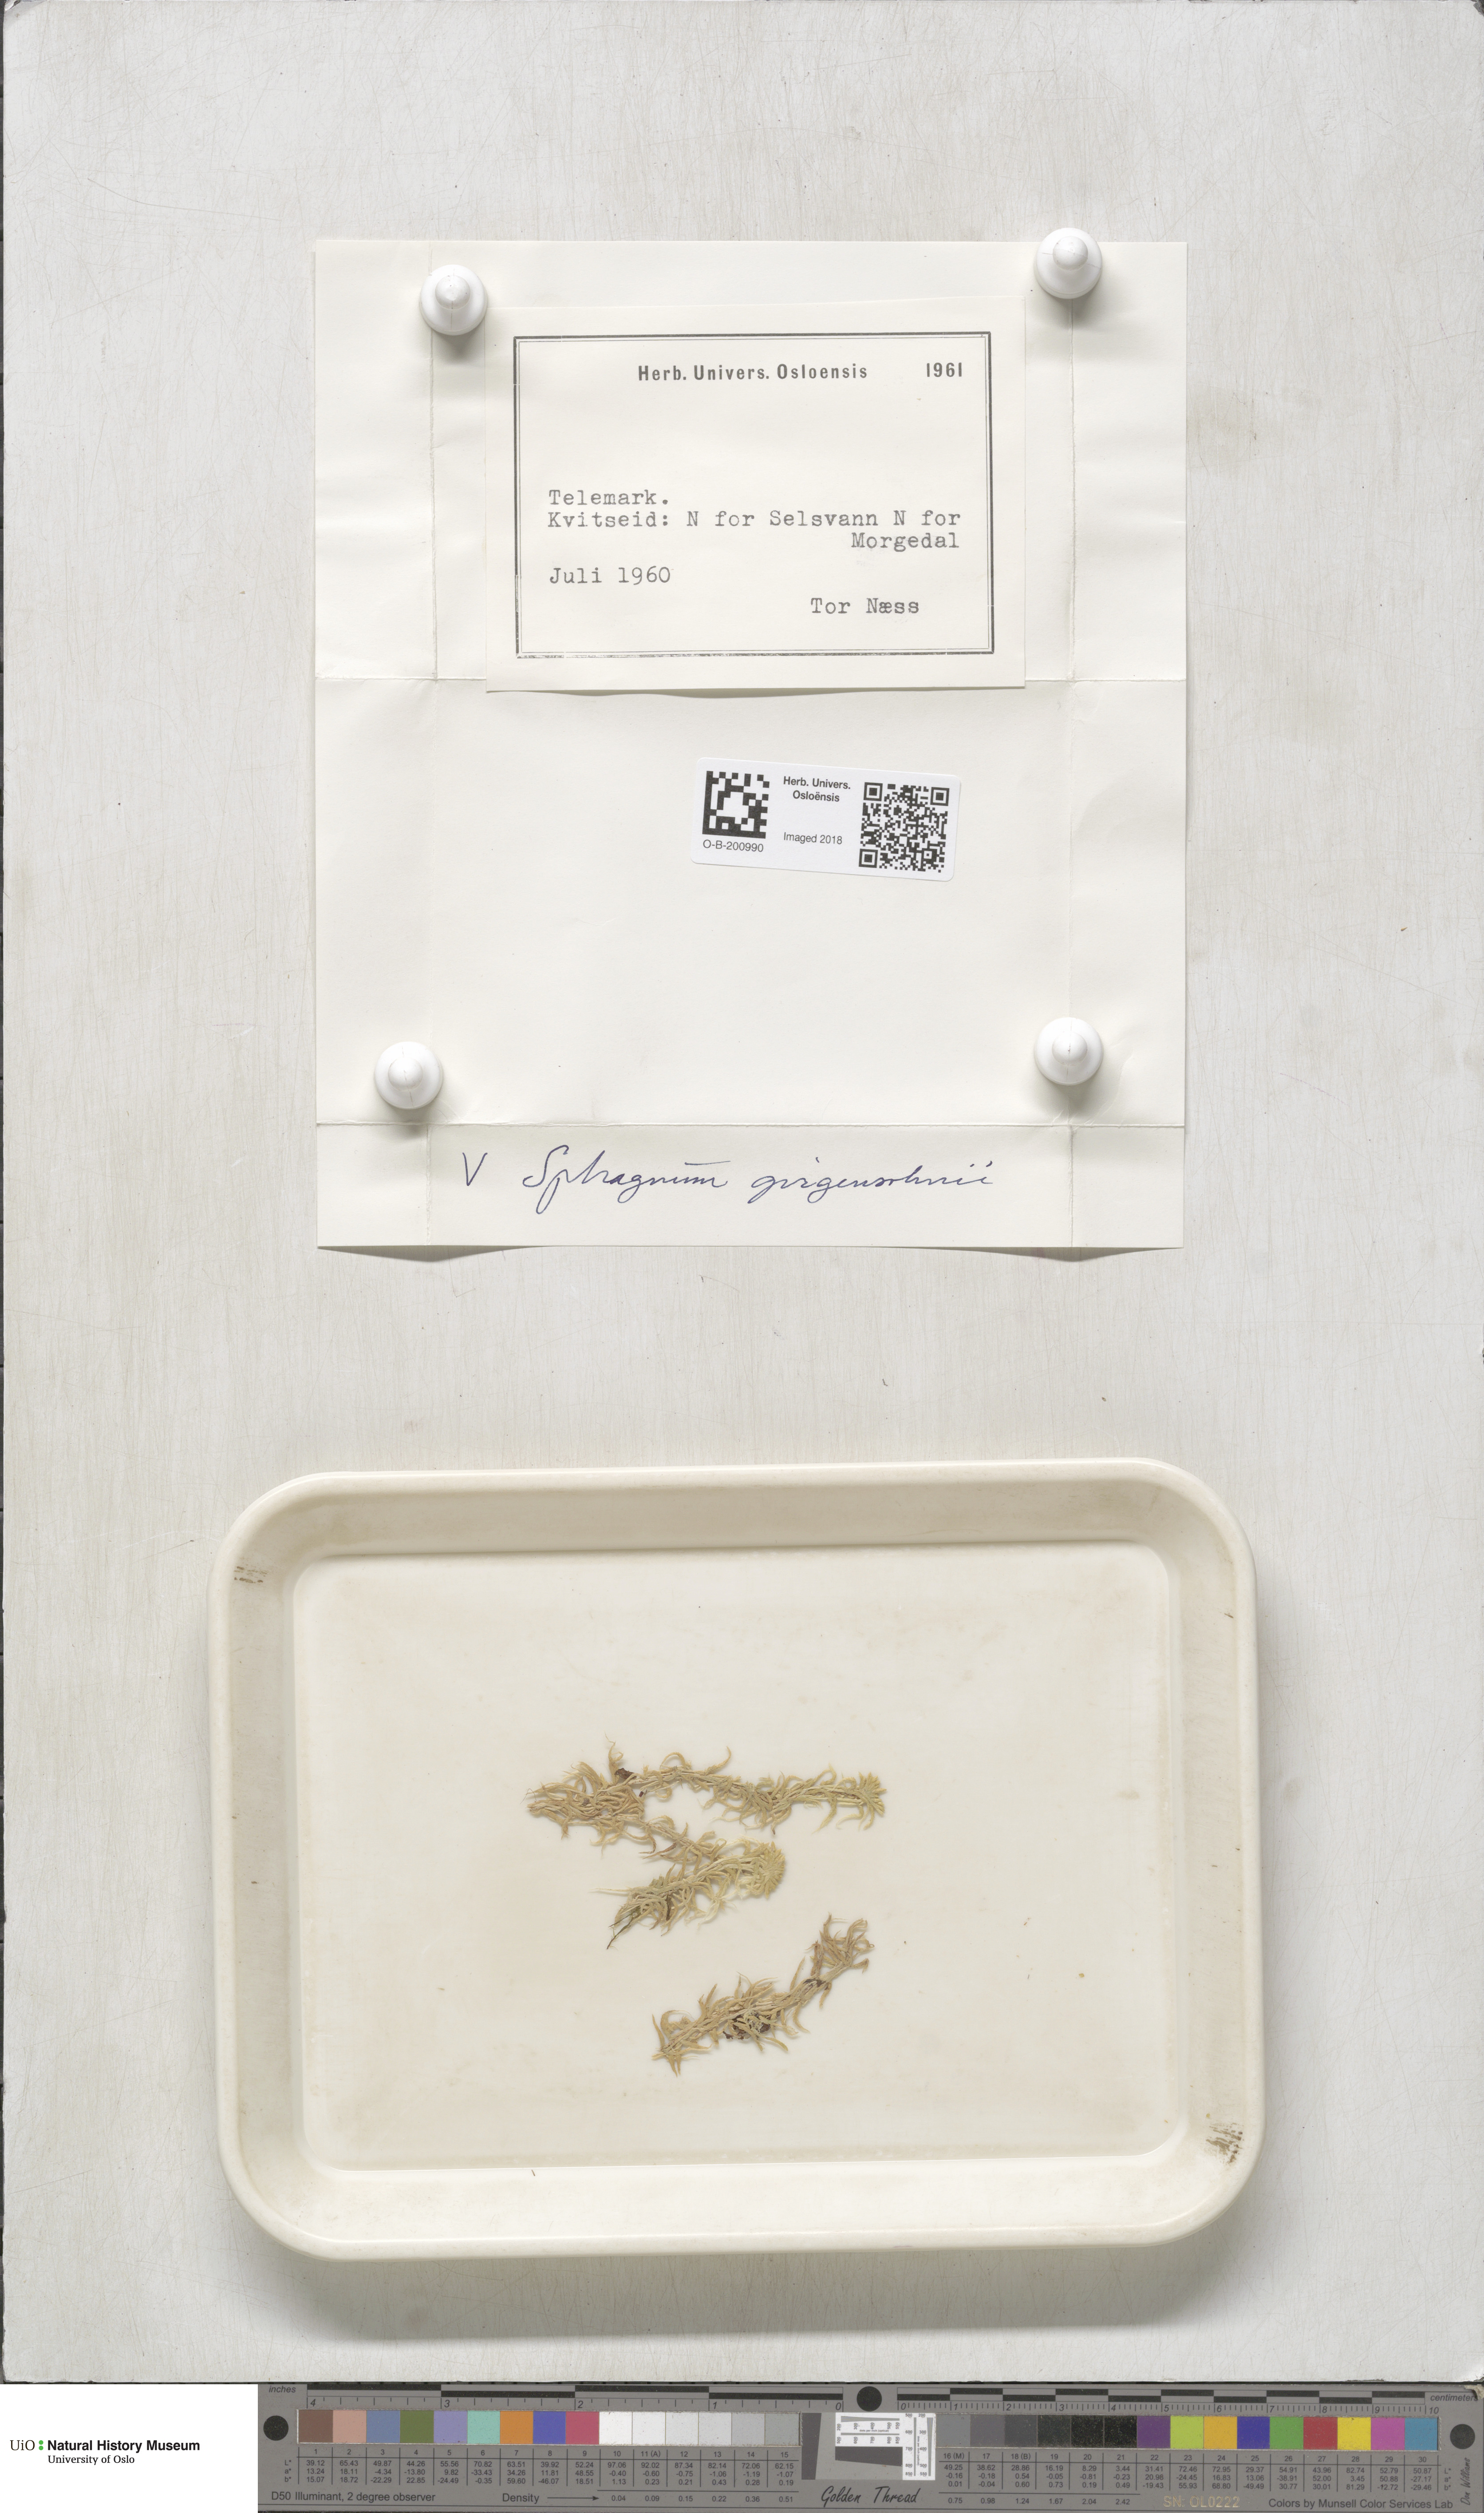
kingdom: Plantae
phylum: Bryophyta
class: Sphagnopsida
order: Sphagnales
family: Sphagnaceae
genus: Sphagnum
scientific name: Sphagnum girgensohnii
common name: Girgensohn's peat moss
